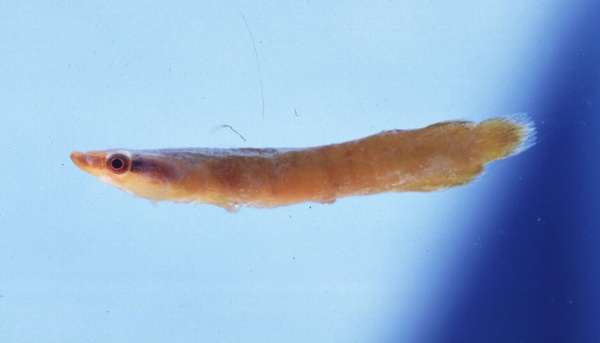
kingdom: Animalia
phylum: Chordata
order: Gobiesociformes
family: Gobiesocidae
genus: Lepadichthys
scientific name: Lepadichthys coccinotaenia
